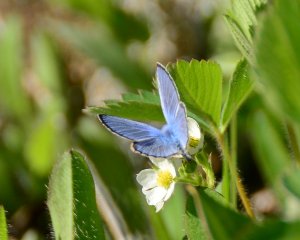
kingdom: Animalia
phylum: Arthropoda
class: Insecta
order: Lepidoptera
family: Lycaenidae
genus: Glaucopsyche
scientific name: Glaucopsyche lygdamus
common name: Silvery Blue
